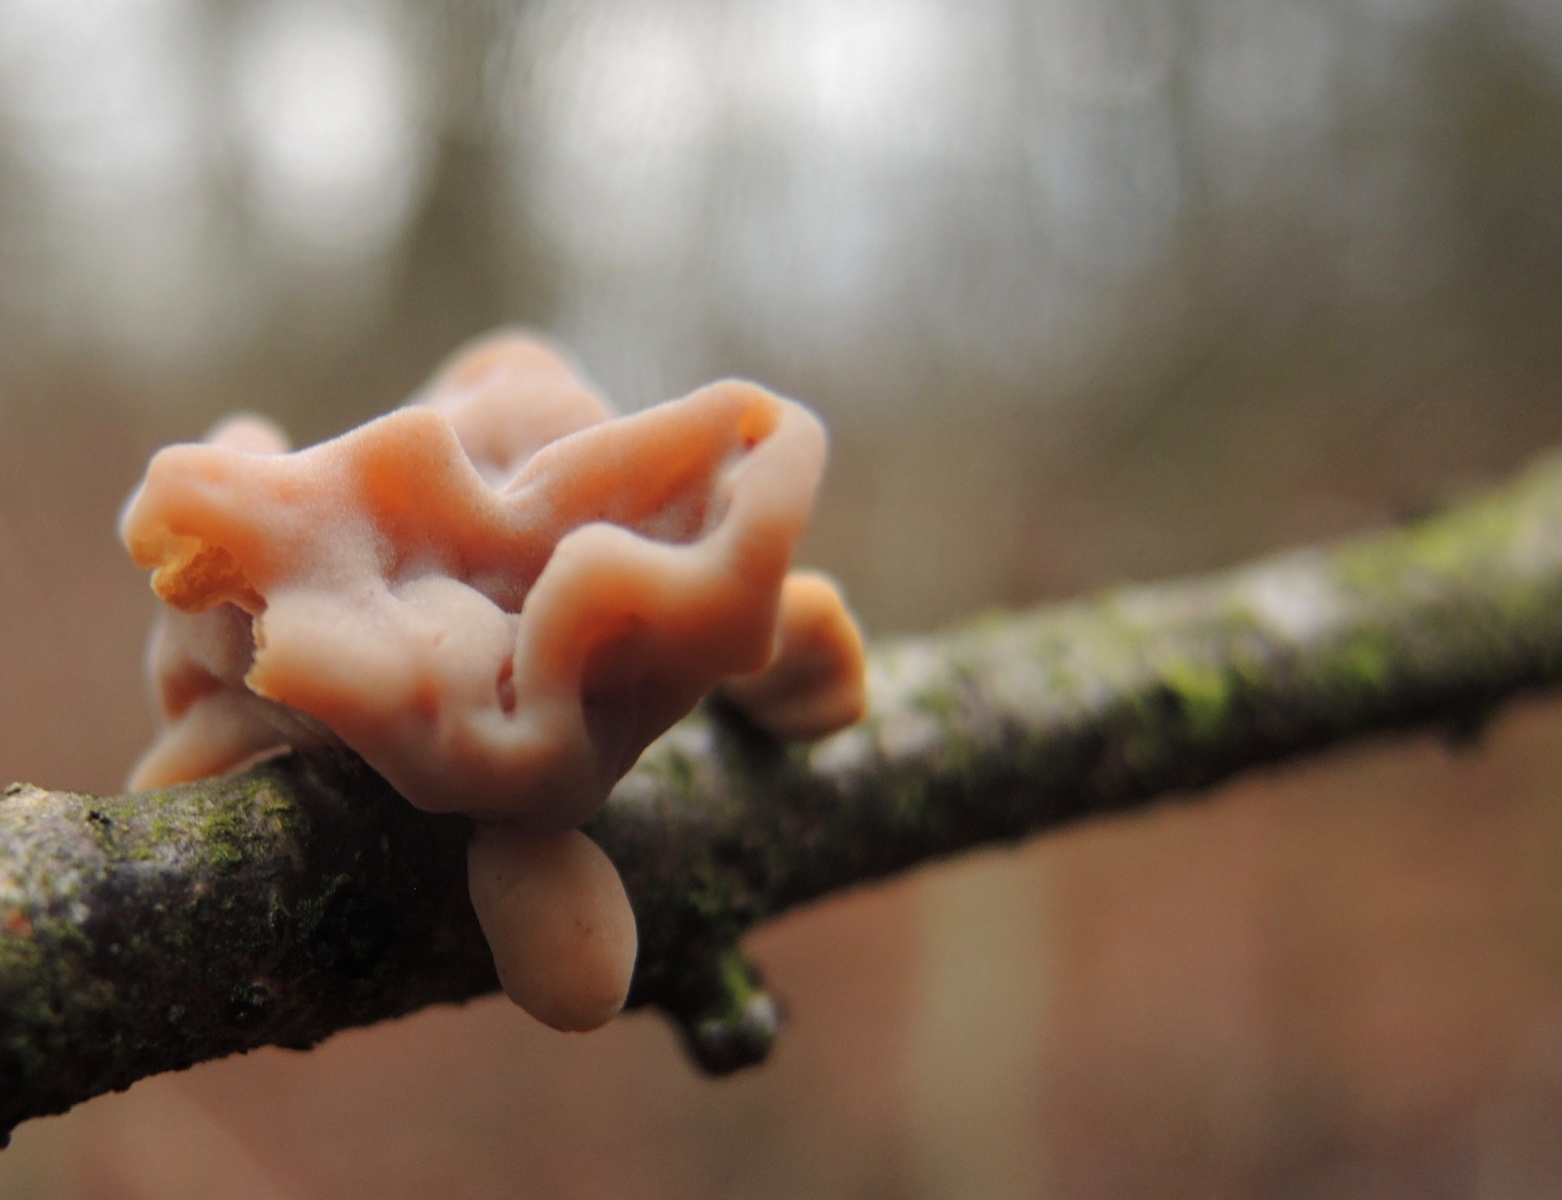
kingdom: Fungi
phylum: Basidiomycota
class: Agaricomycetes
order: Agaricales
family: Typhulaceae
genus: Typhula
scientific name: Typhula contorta
